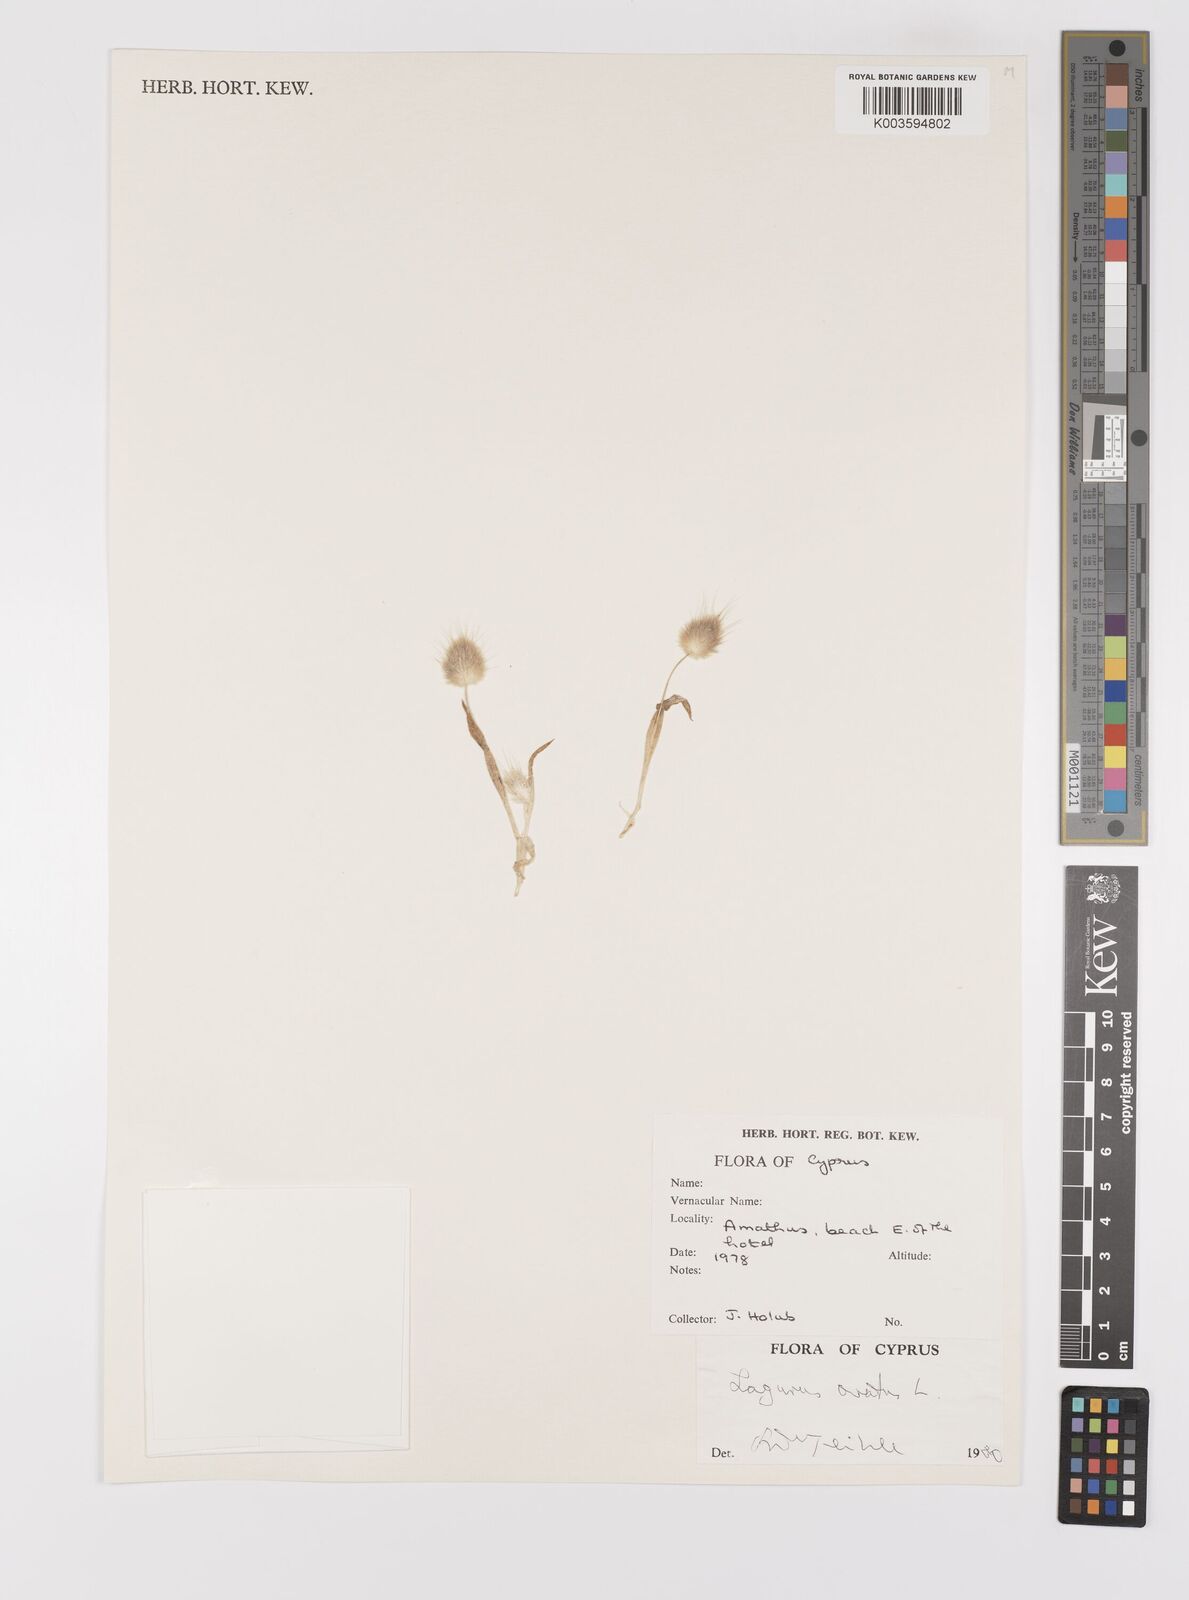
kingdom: Plantae
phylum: Tracheophyta
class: Liliopsida
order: Poales
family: Poaceae
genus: Lagurus
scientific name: Lagurus ovatus
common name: Hare's-tail
